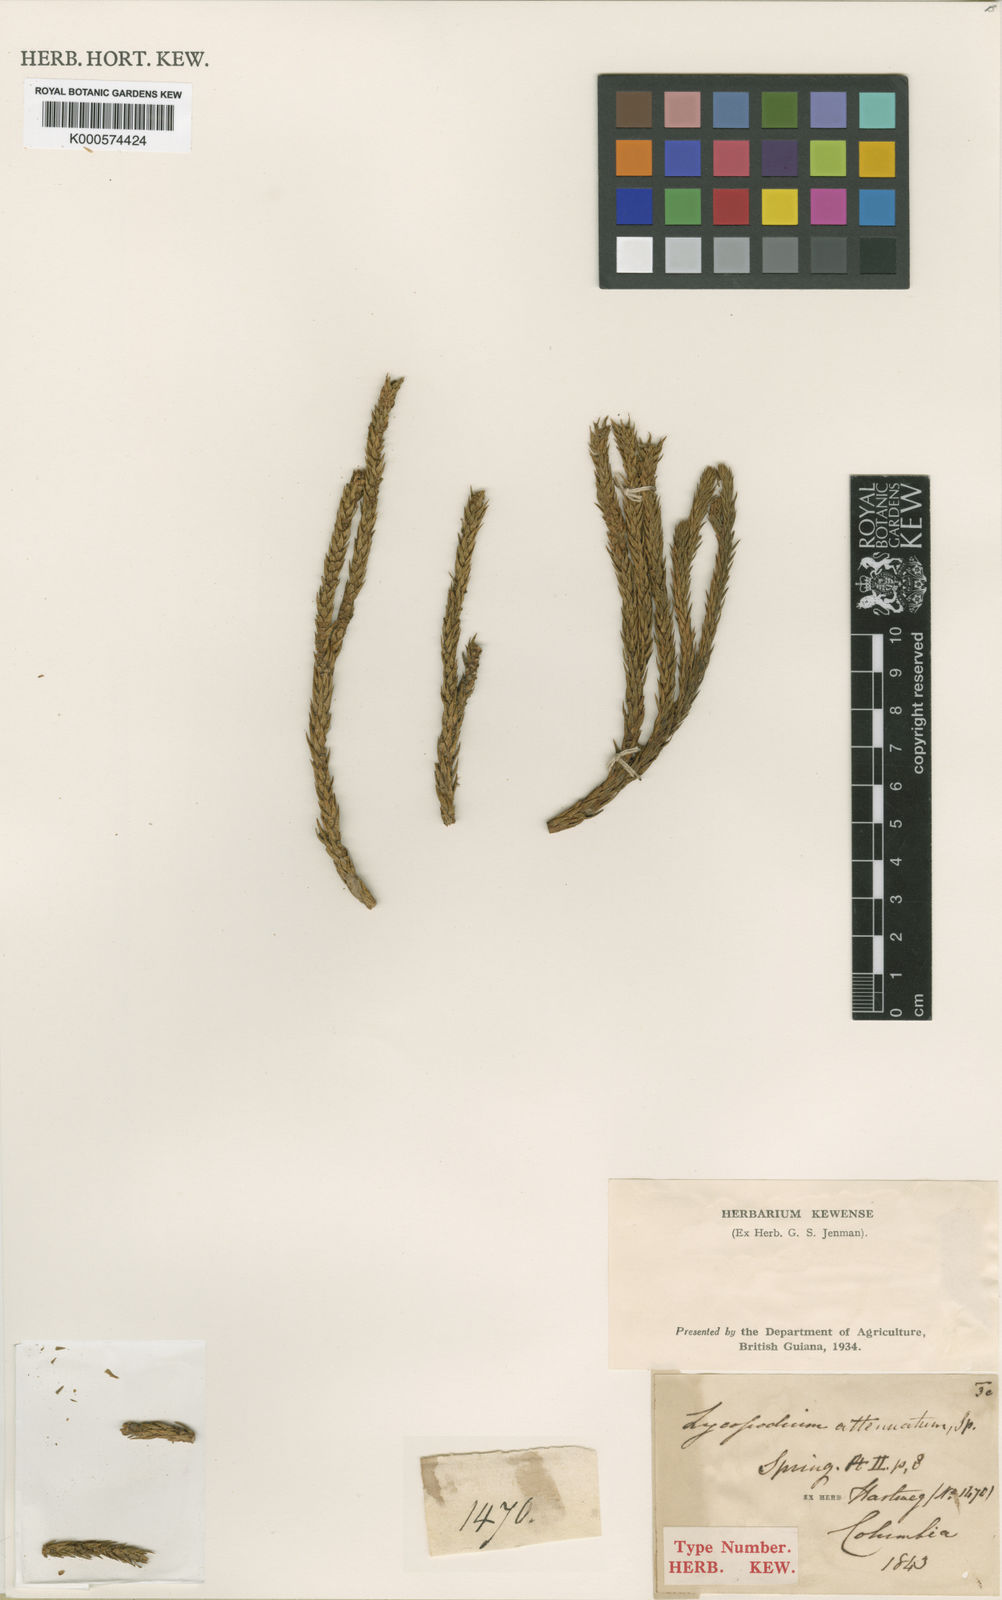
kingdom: Plantae
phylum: Tracheophyta
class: Lycopodiopsida
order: Lycopodiales
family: Lycopodiaceae
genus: Phlegmariurus
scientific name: Phlegmariurus attenuatus
